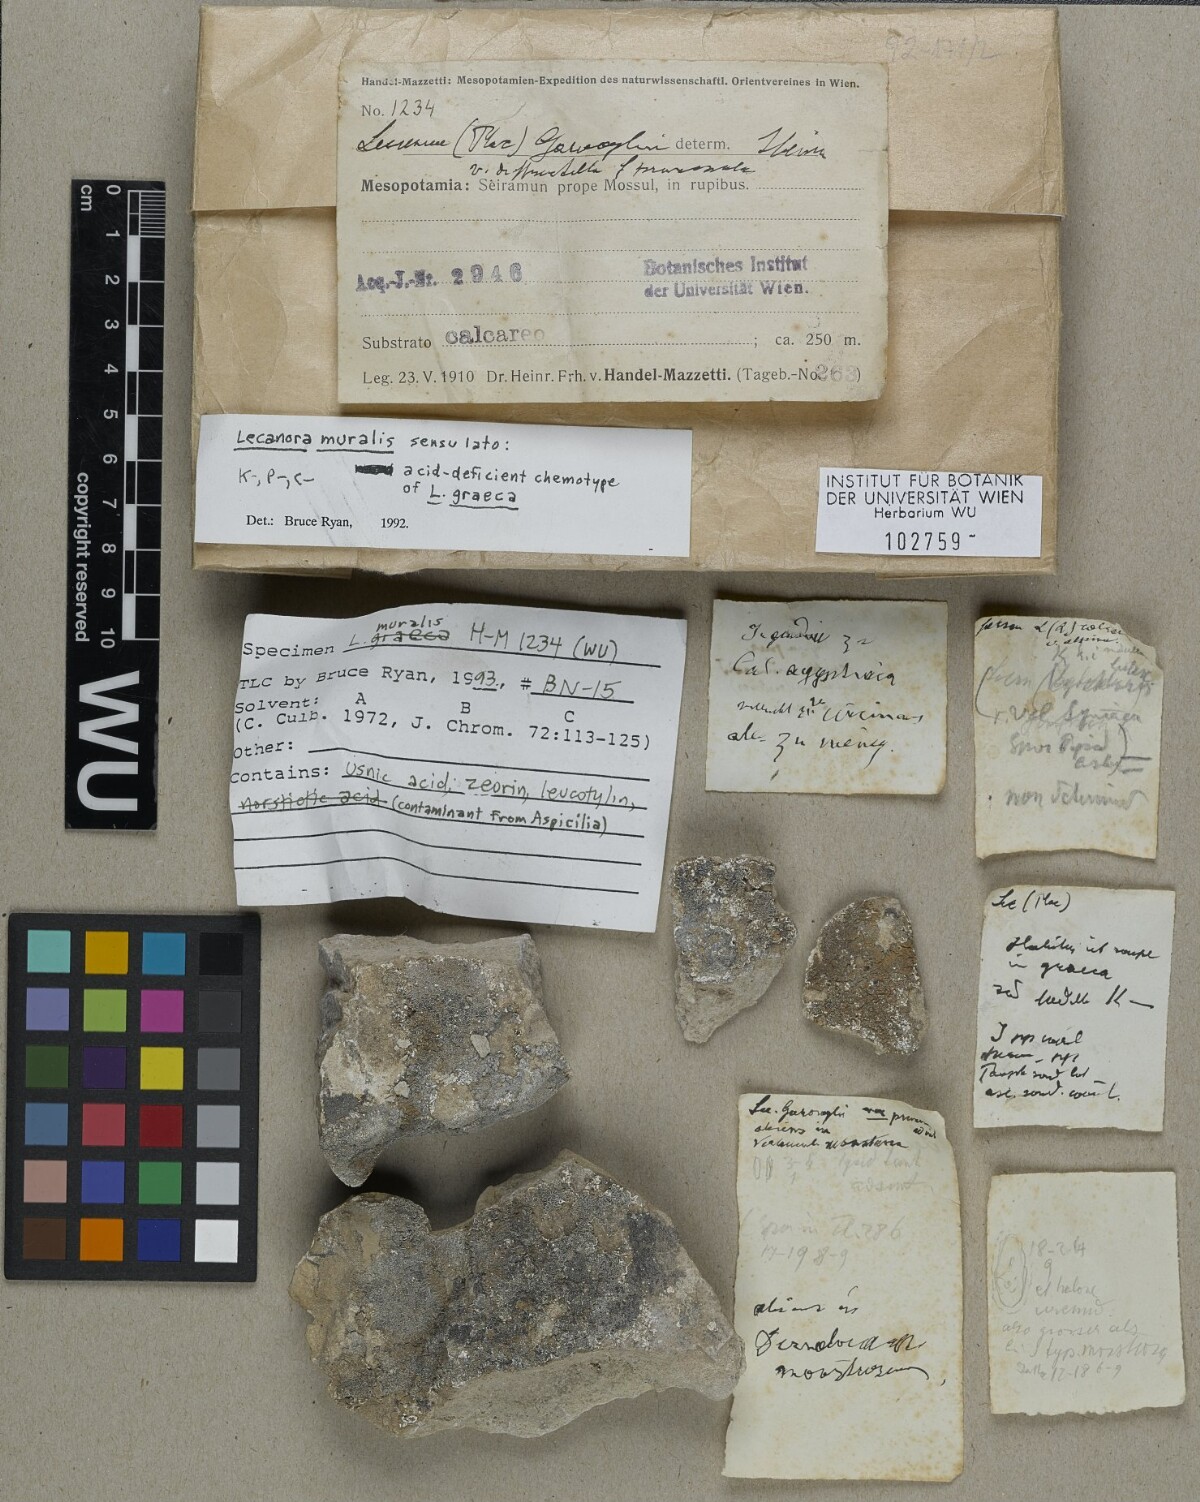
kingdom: Fungi
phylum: Ascomycota
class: Lecanoromycetes
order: Lecanorales
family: Lecanoraceae
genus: Protoparmeliopsis
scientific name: Protoparmeliopsis muralis
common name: Stonewall rim lichen
